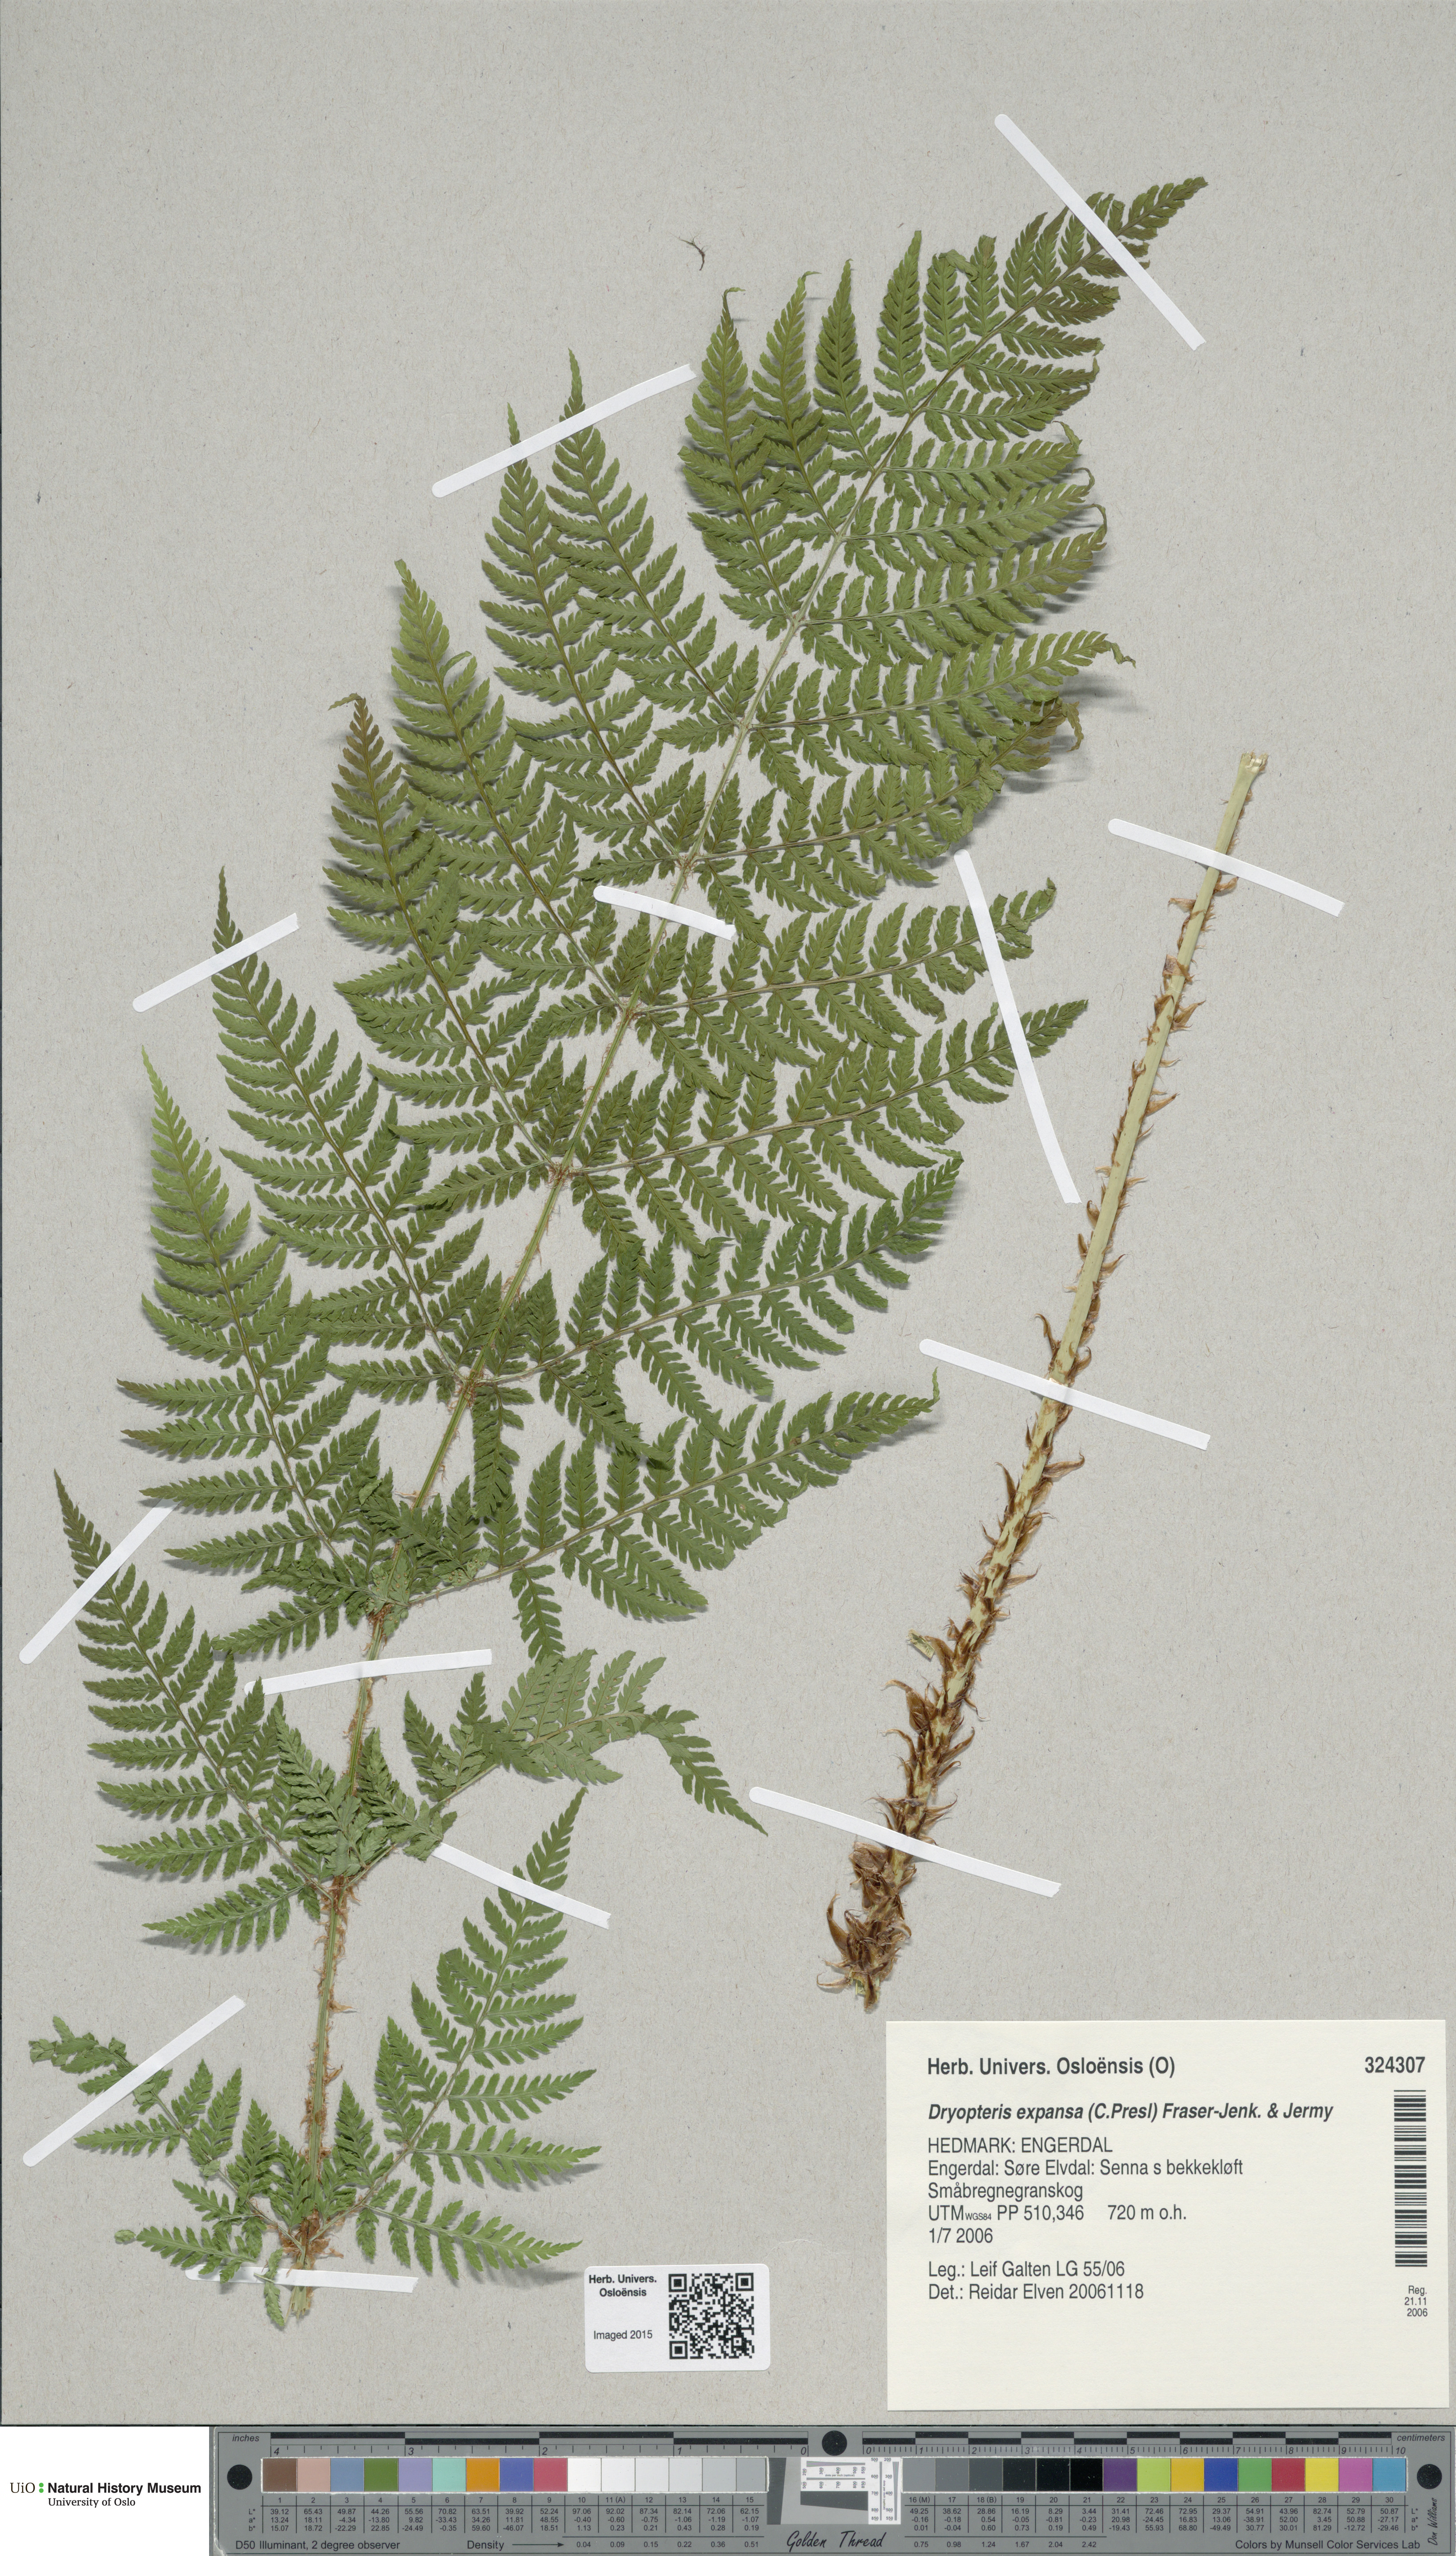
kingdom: Plantae
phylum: Tracheophyta
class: Polypodiopsida
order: Polypodiales
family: Dryopteridaceae
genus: Dryopteris
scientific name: Dryopteris expansa
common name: Northern buckler fern
